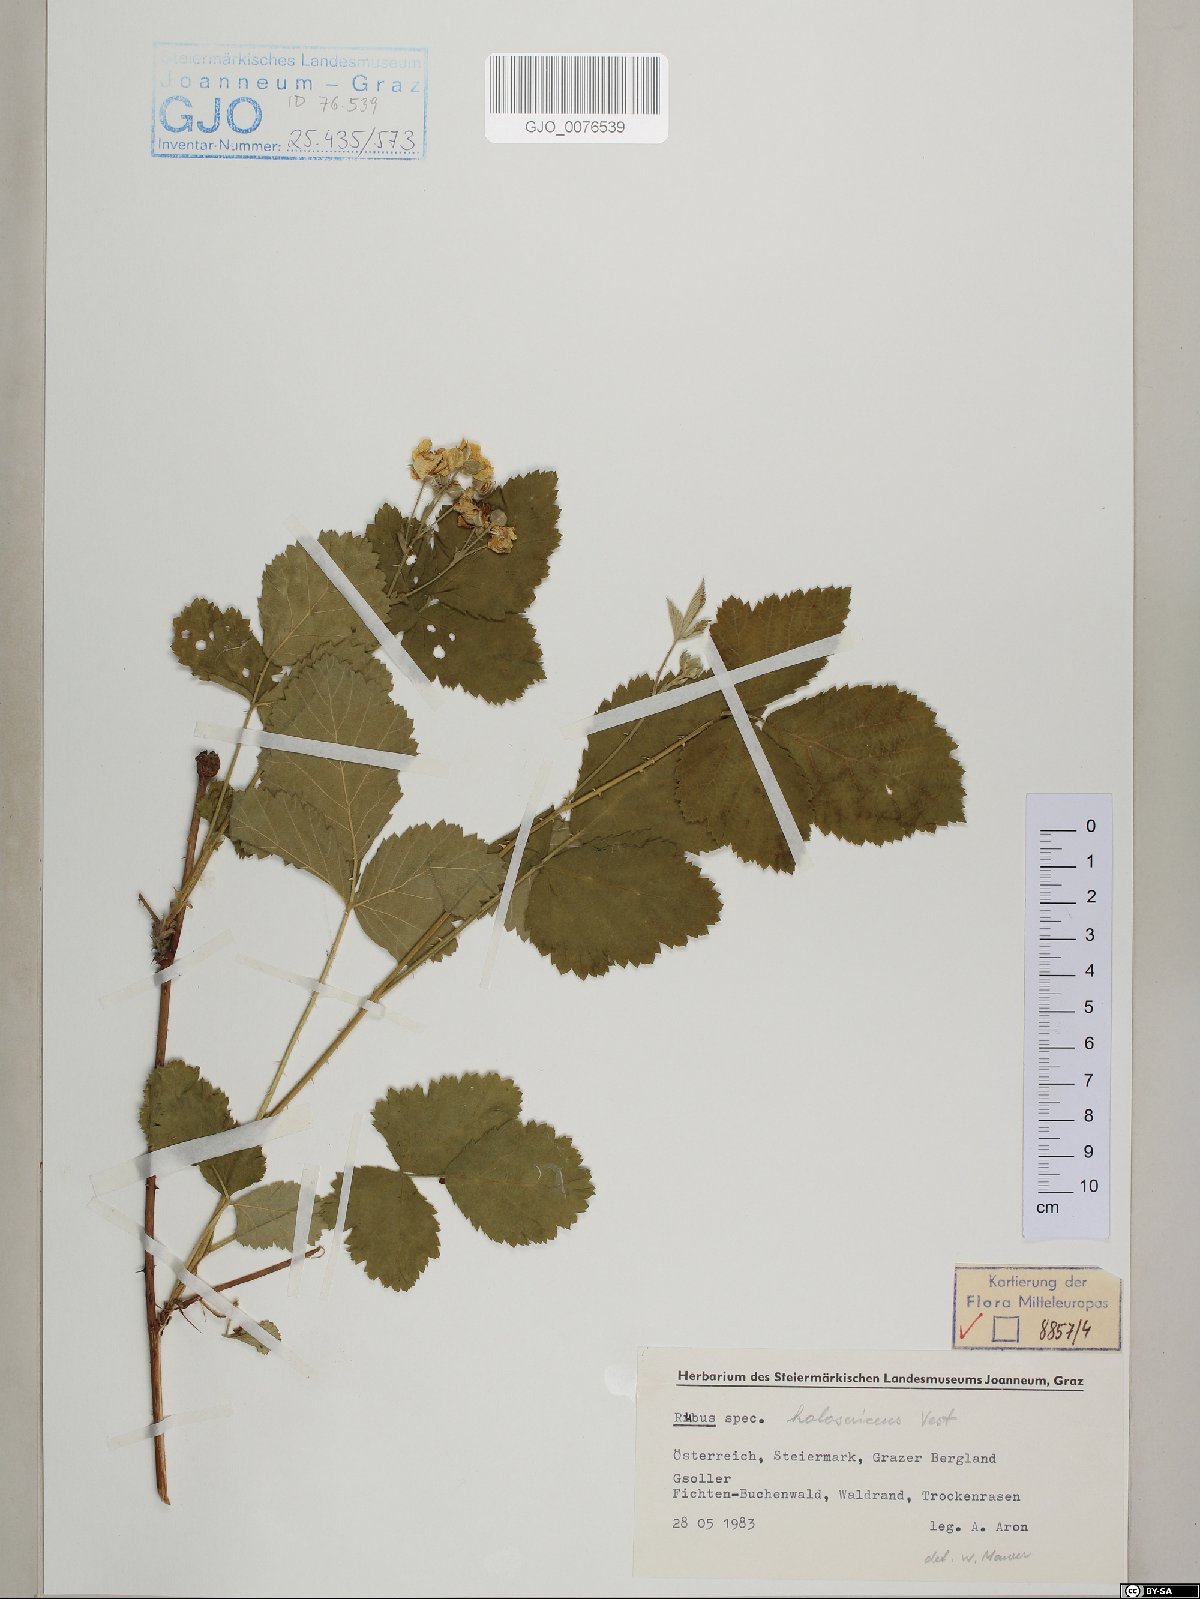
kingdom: Plantae
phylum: Tracheophyta
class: Magnoliopsida
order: Rosales
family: Rosaceae
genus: Rubus
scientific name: Rubus holosericeus
